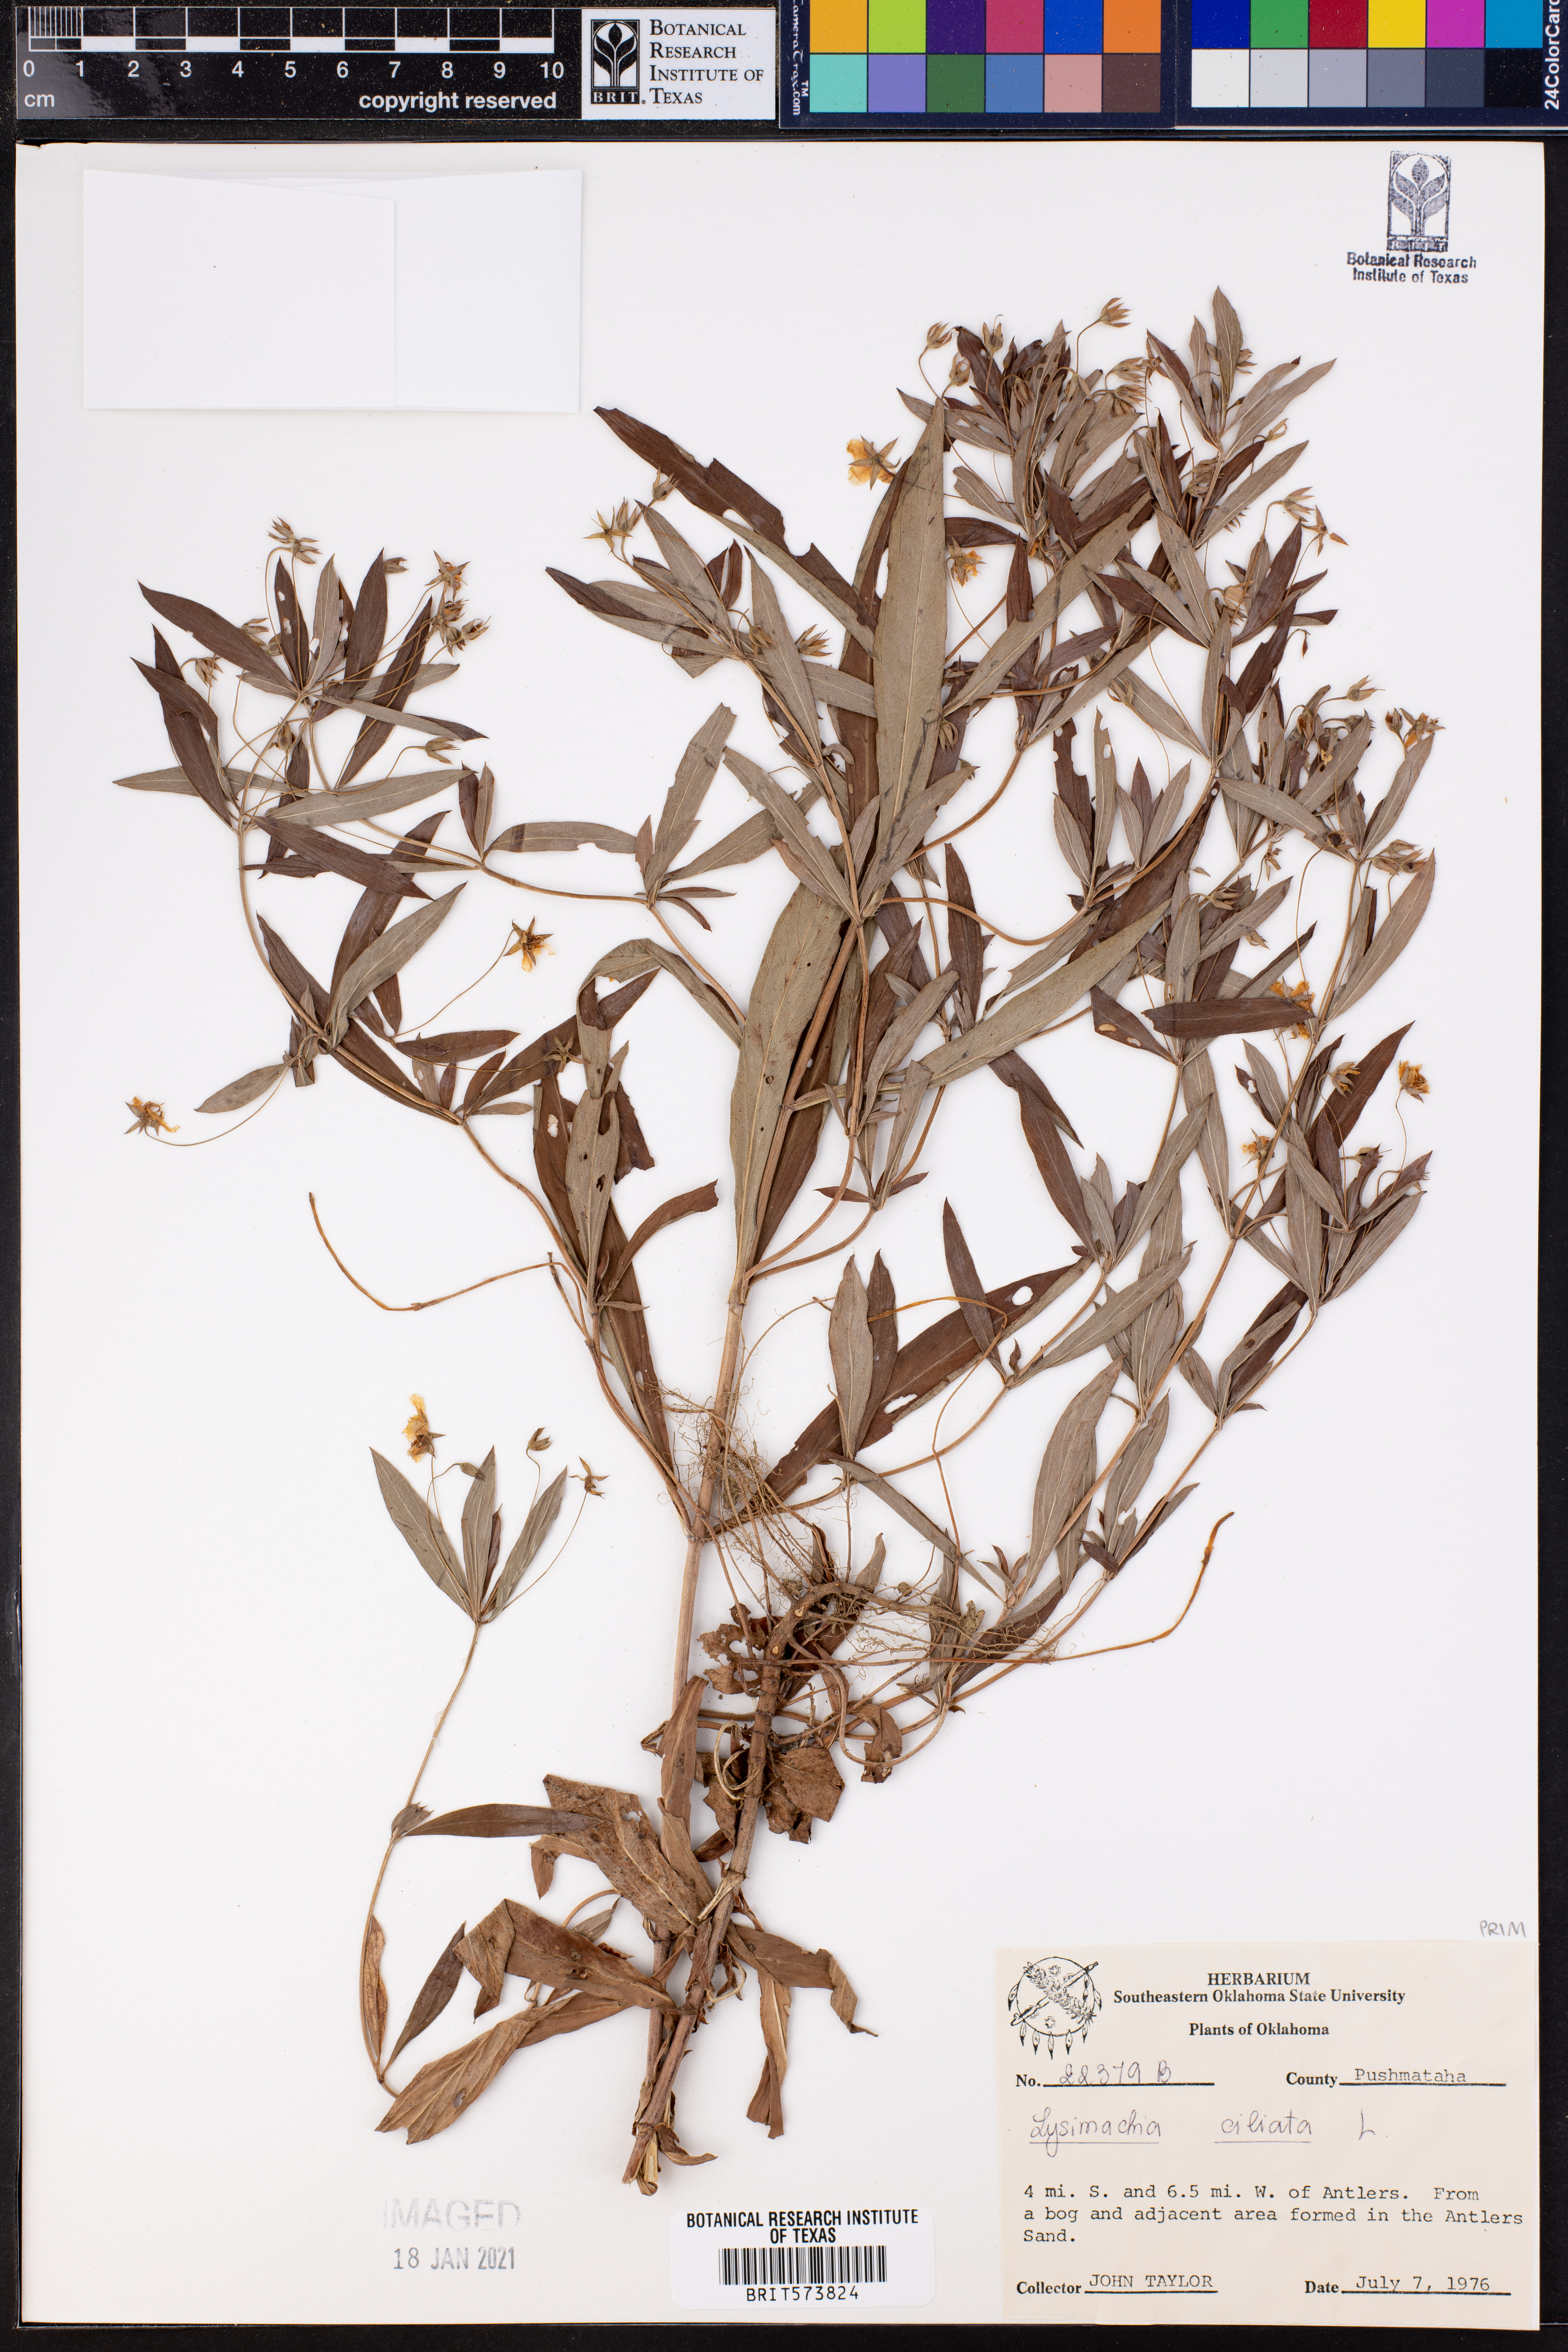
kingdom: Plantae
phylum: Tracheophyta
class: Magnoliopsida
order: Ericales
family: Primulaceae
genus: Lysimachia
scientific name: Lysimachia ciliata
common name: Fringed loosestrife
